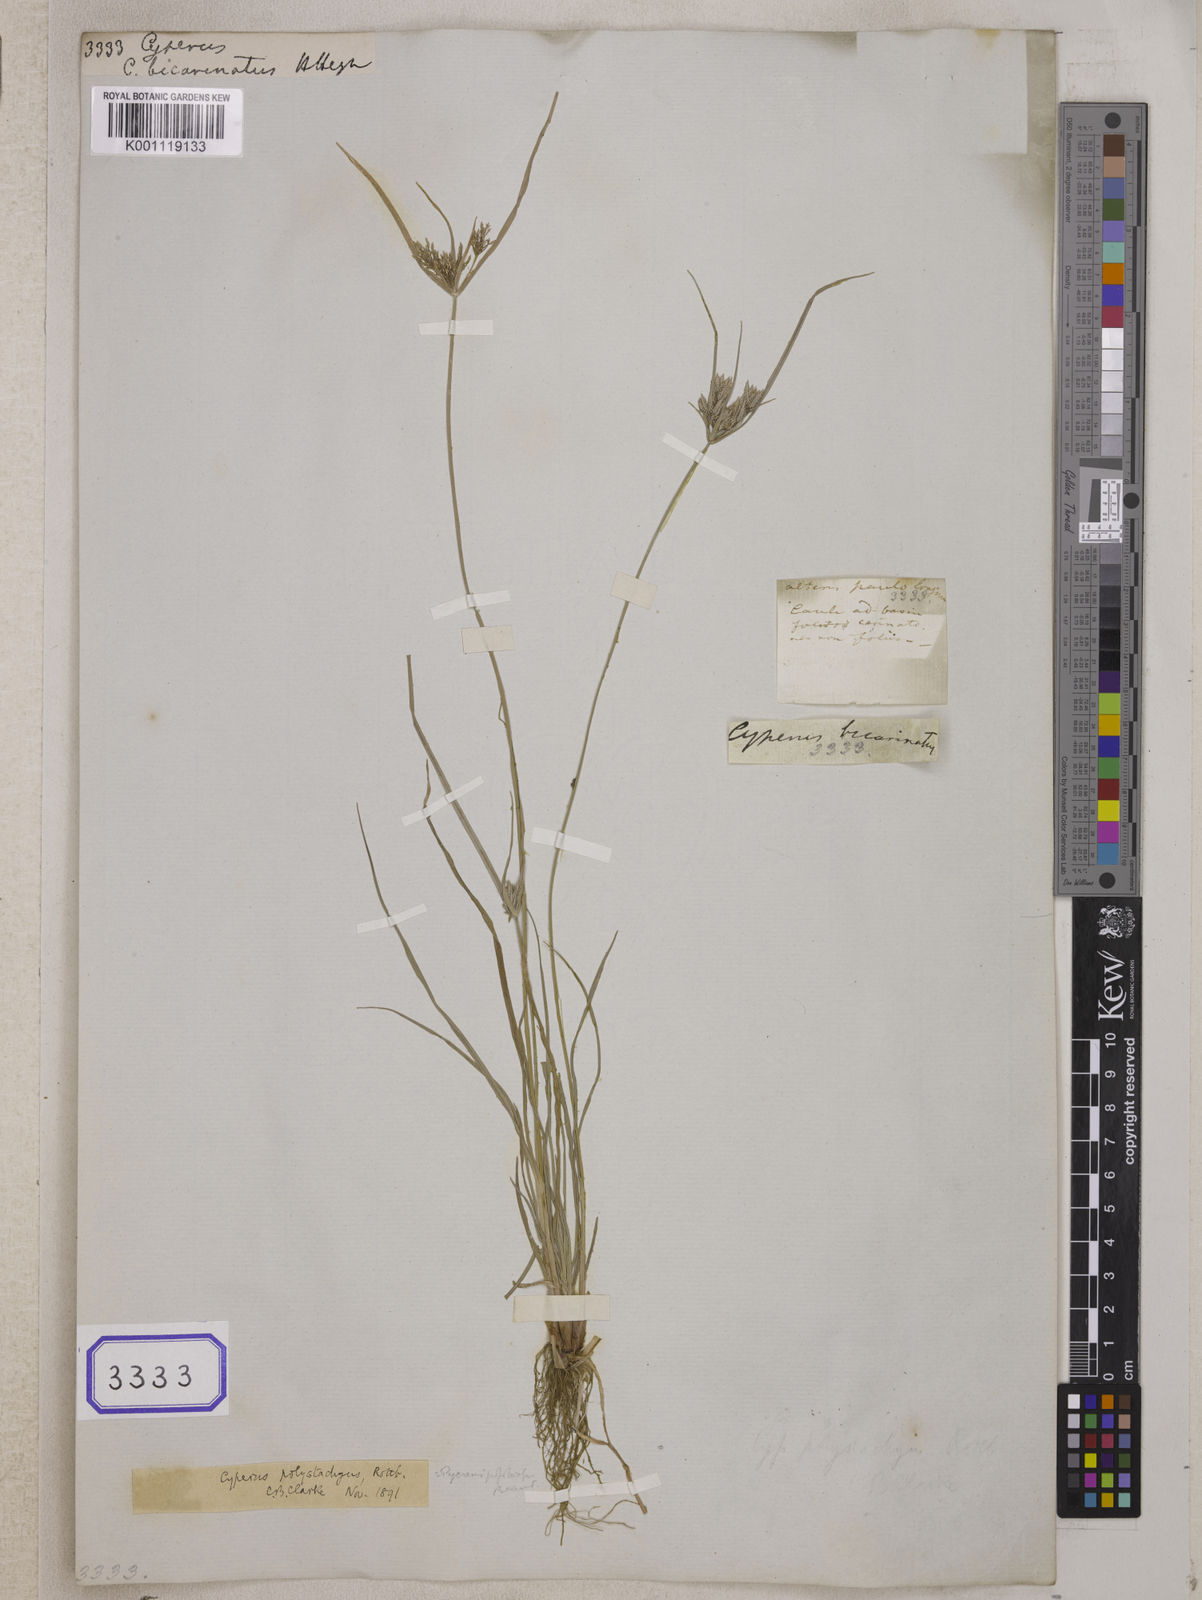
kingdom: Plantae
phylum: Tracheophyta
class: Liliopsida
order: Poales
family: Cyperaceae
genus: Cyperus
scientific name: Cyperus
